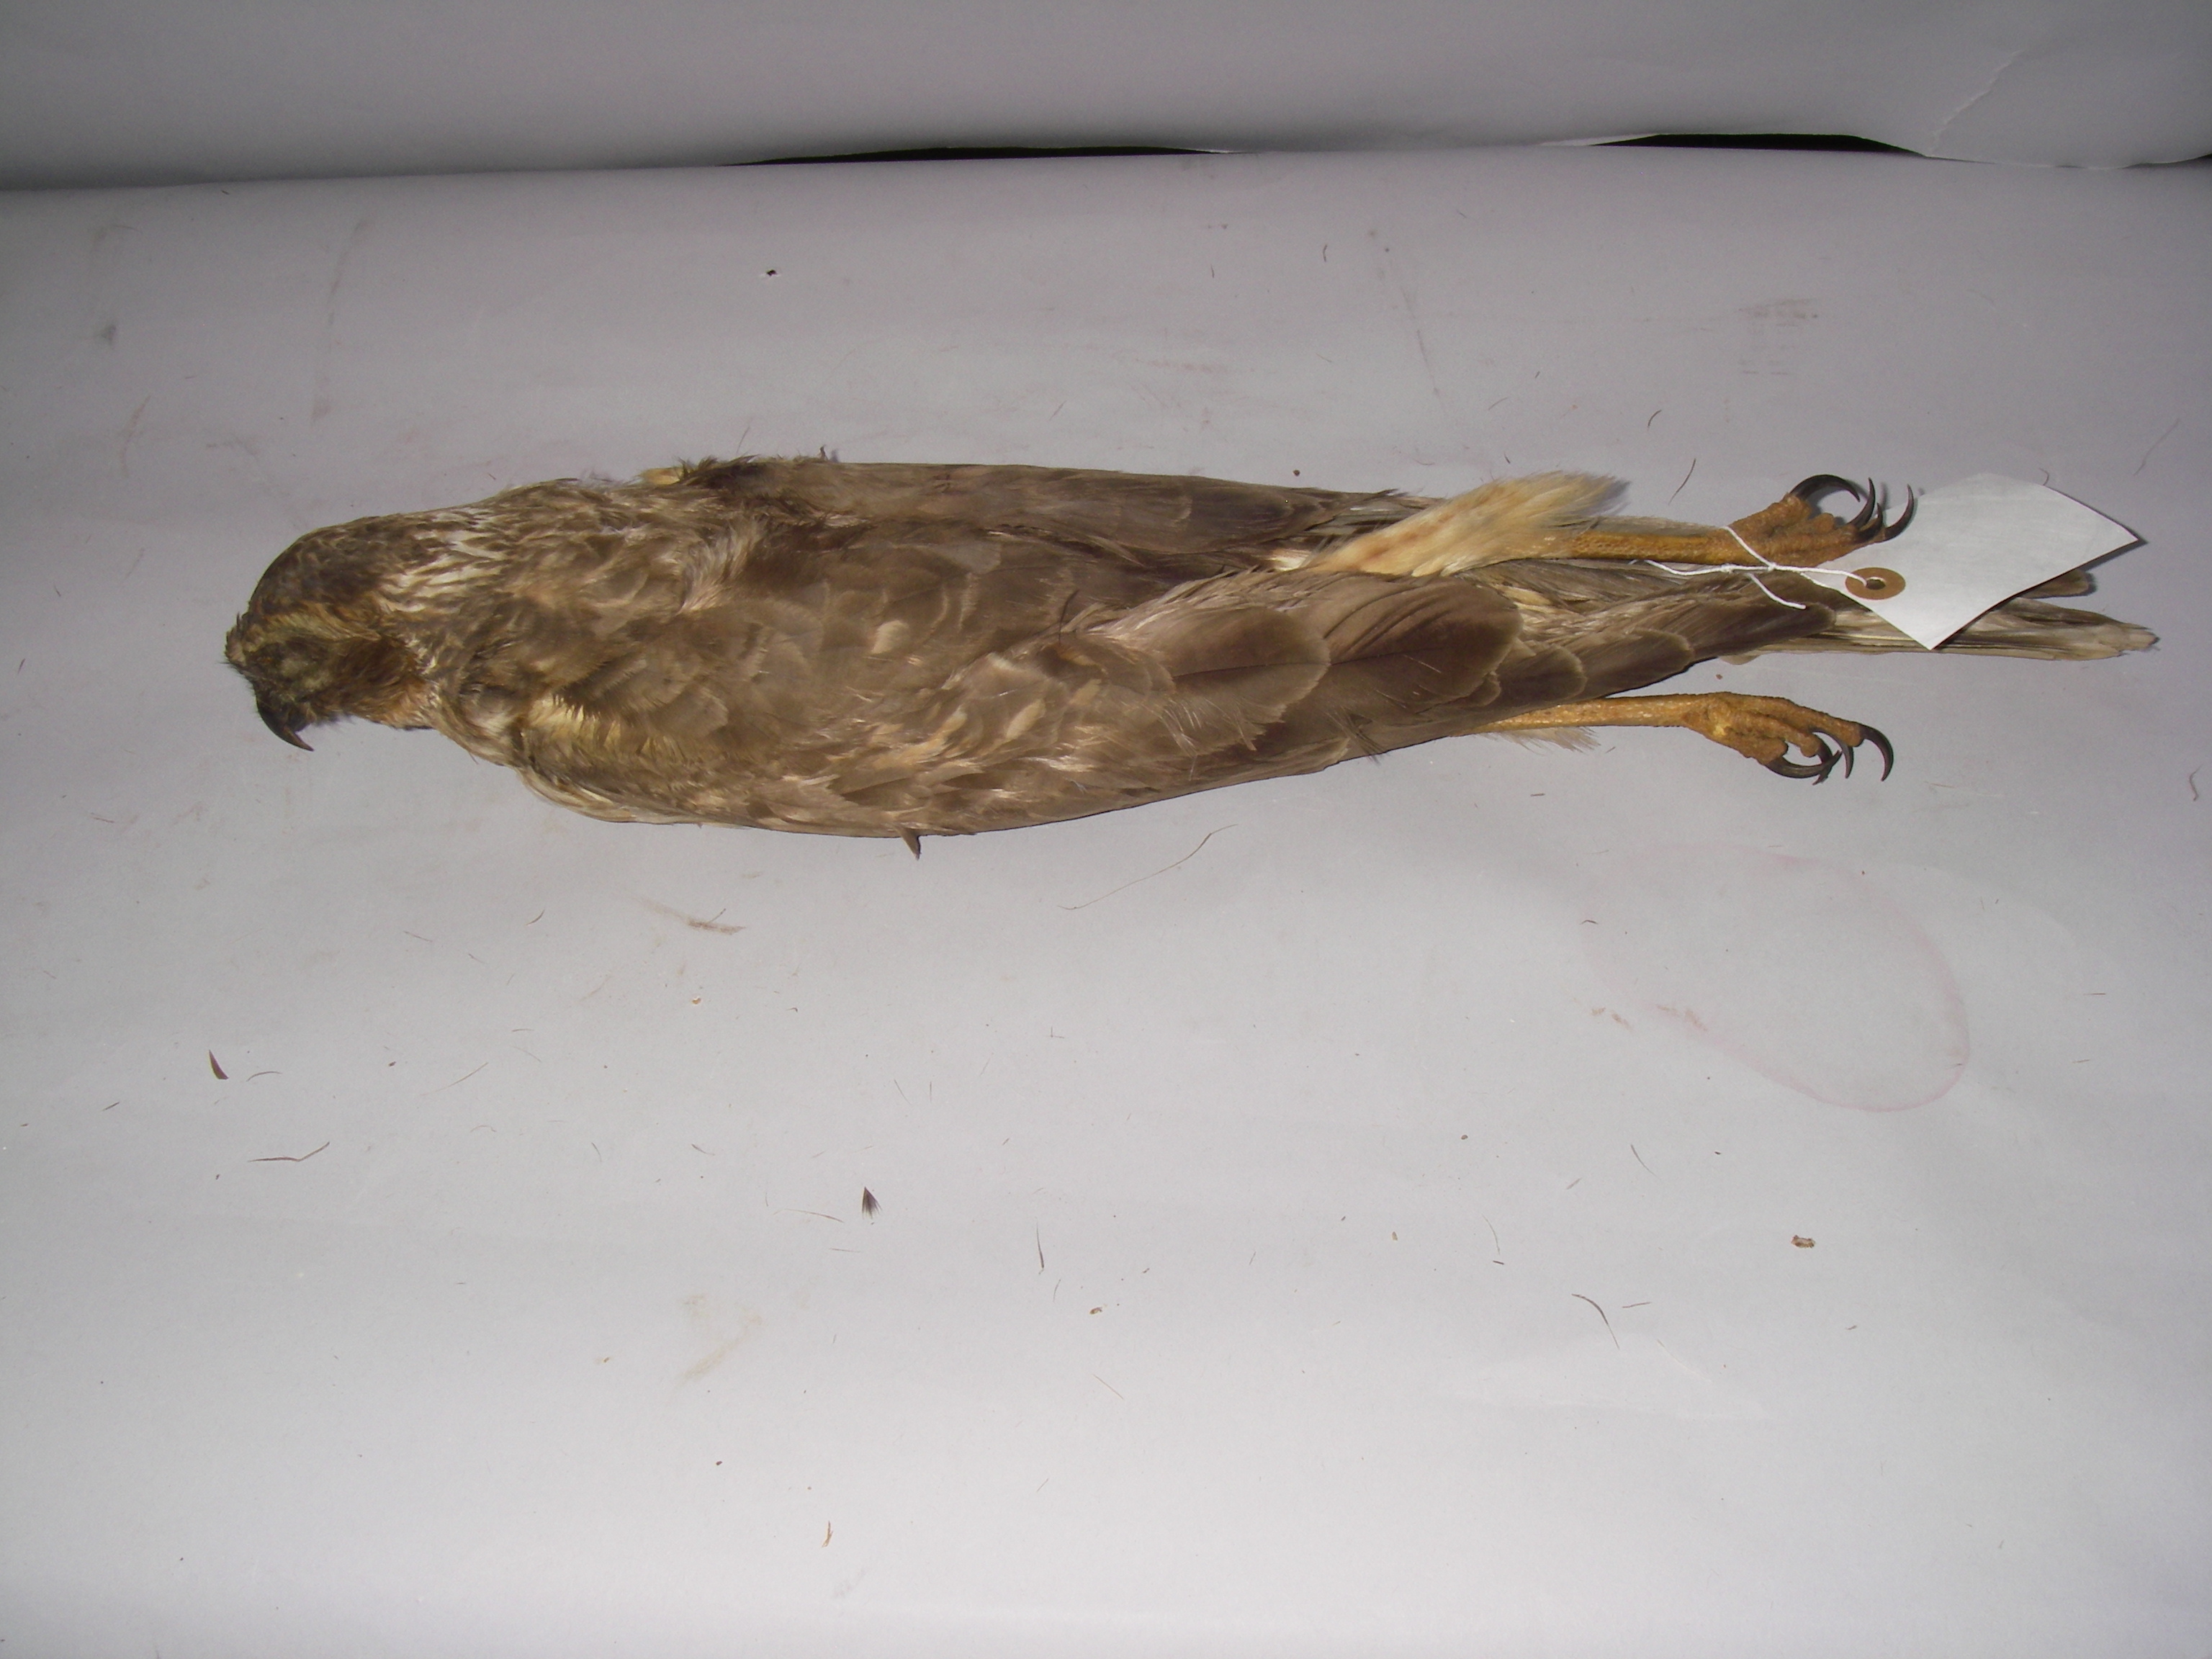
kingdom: Animalia
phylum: Chordata
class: Aves
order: Accipitriformes
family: Accipitridae
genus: Circus
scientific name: Circus cyaneus
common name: Hen harrier
